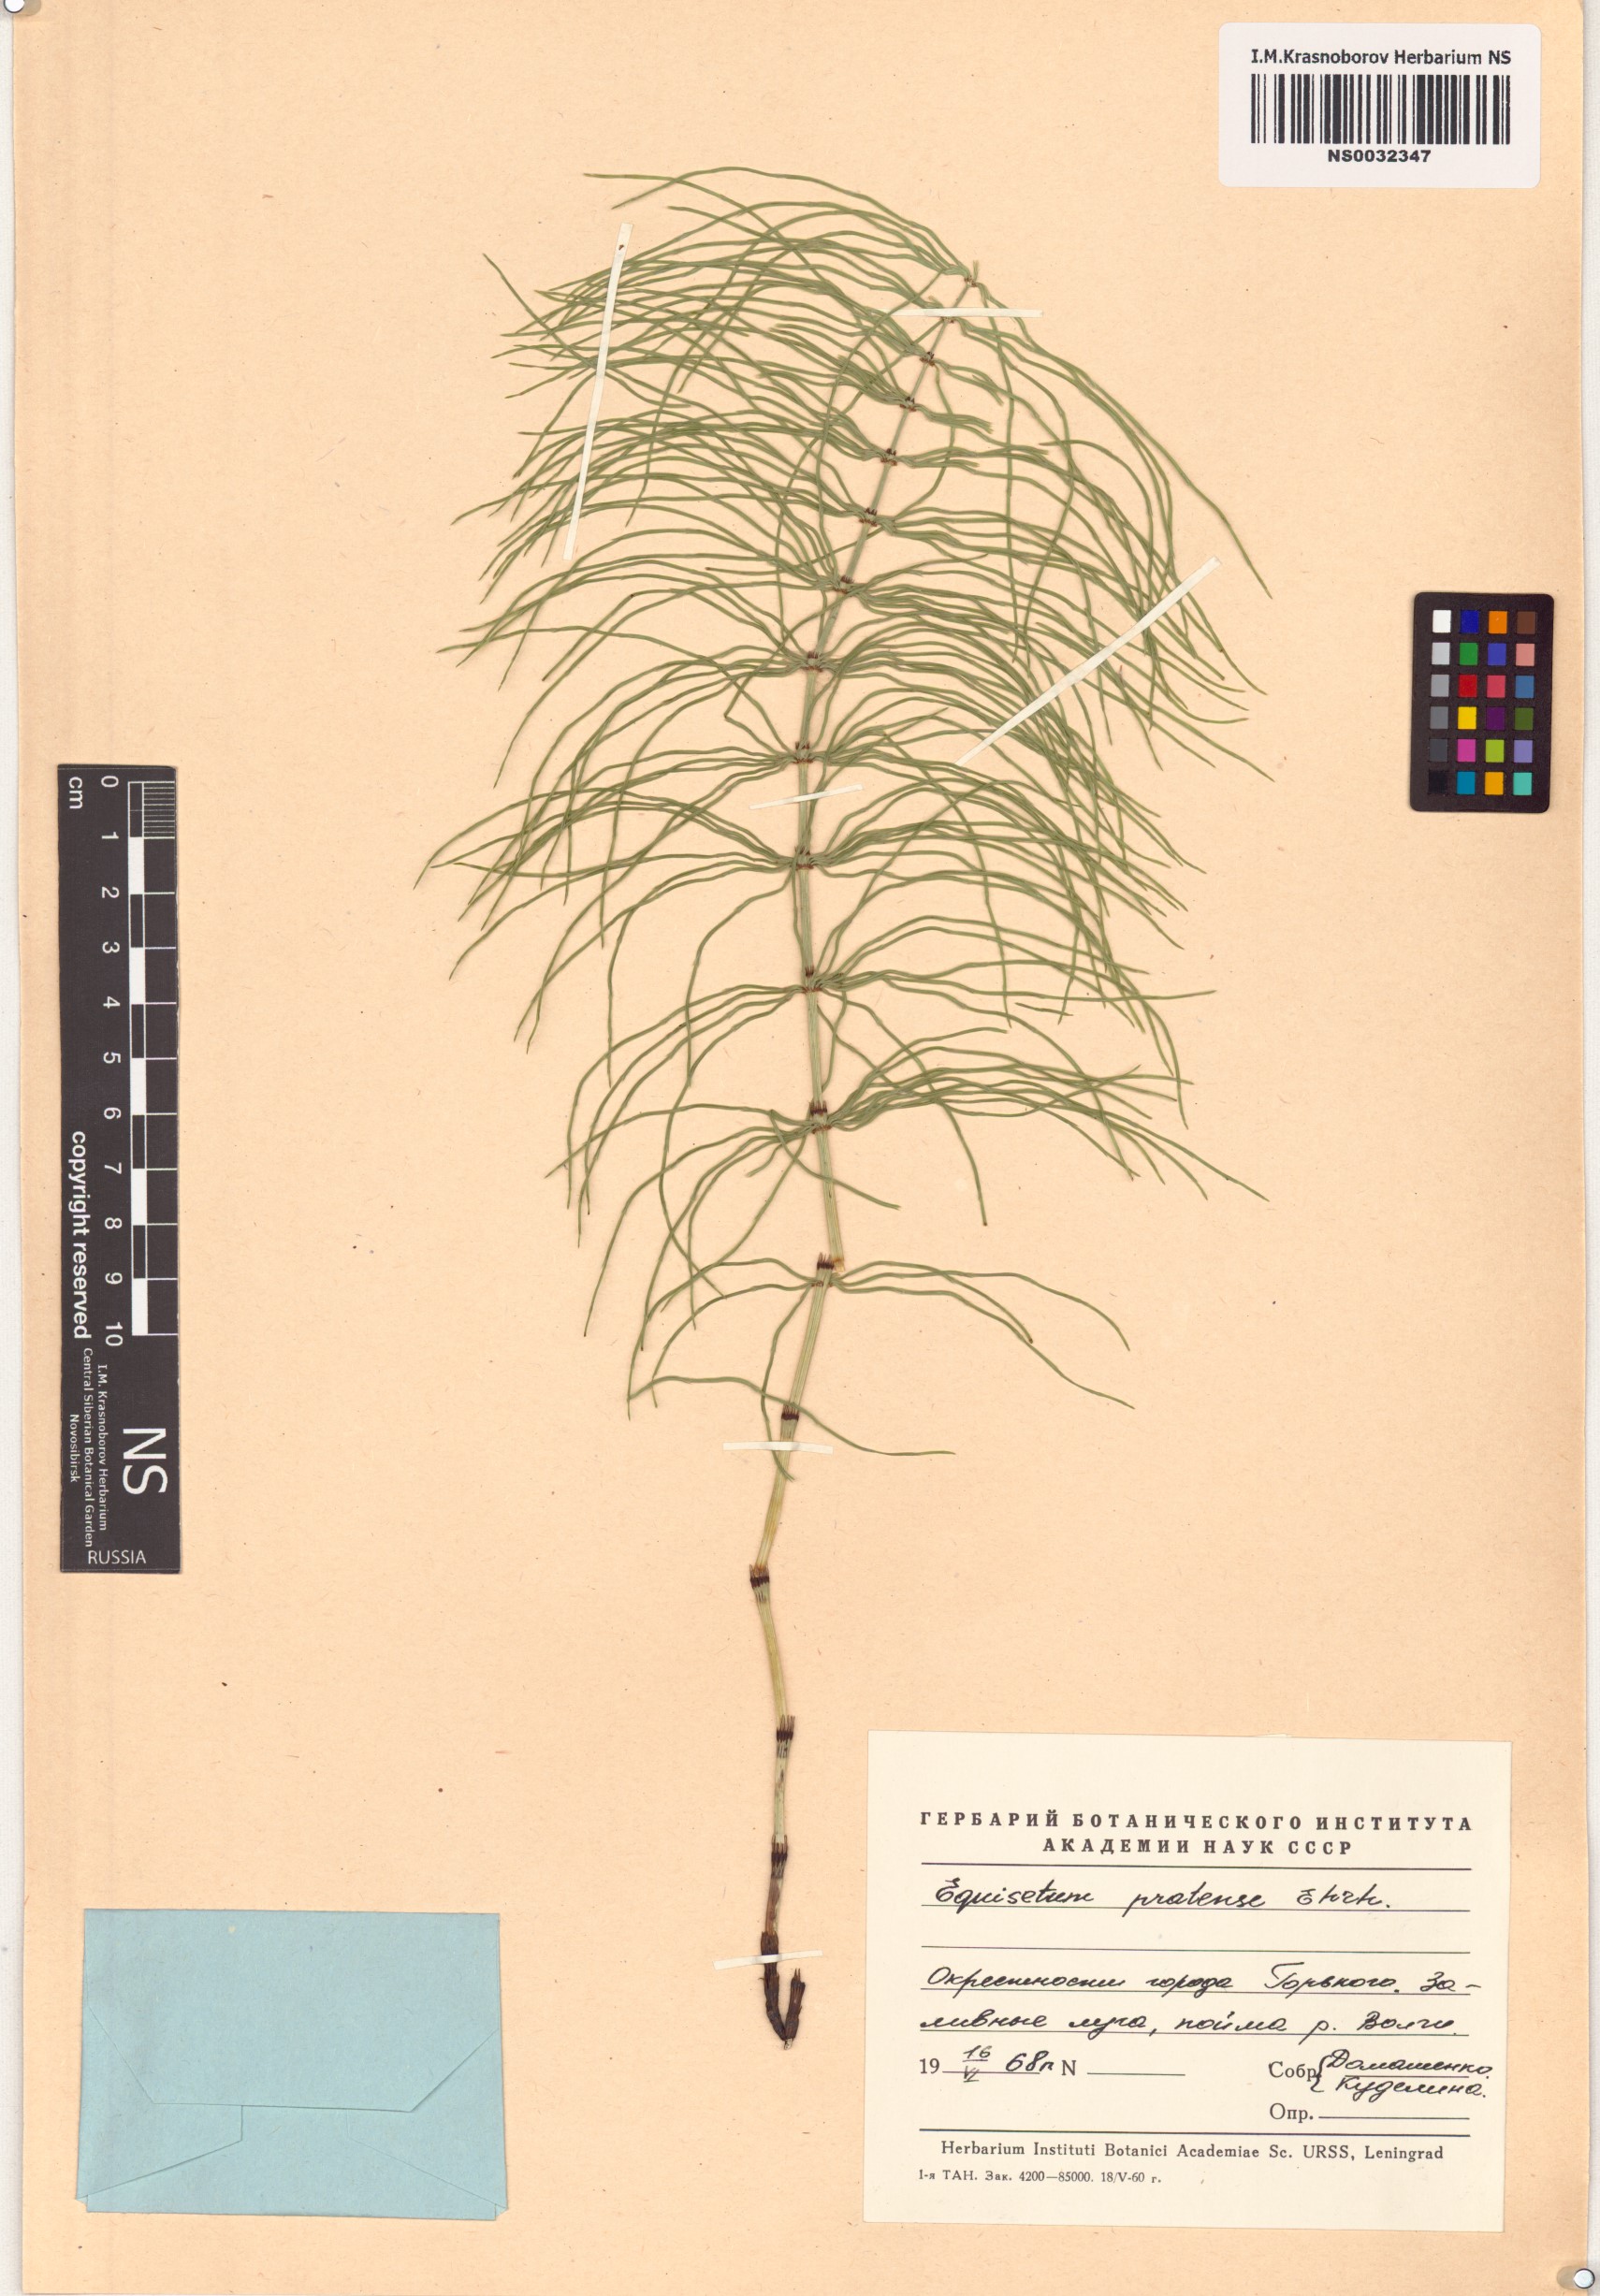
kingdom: Plantae
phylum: Tracheophyta
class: Polypodiopsida
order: Equisetales
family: Equisetaceae
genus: Equisetum
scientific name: Equisetum pratense
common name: Meadow horsetail
